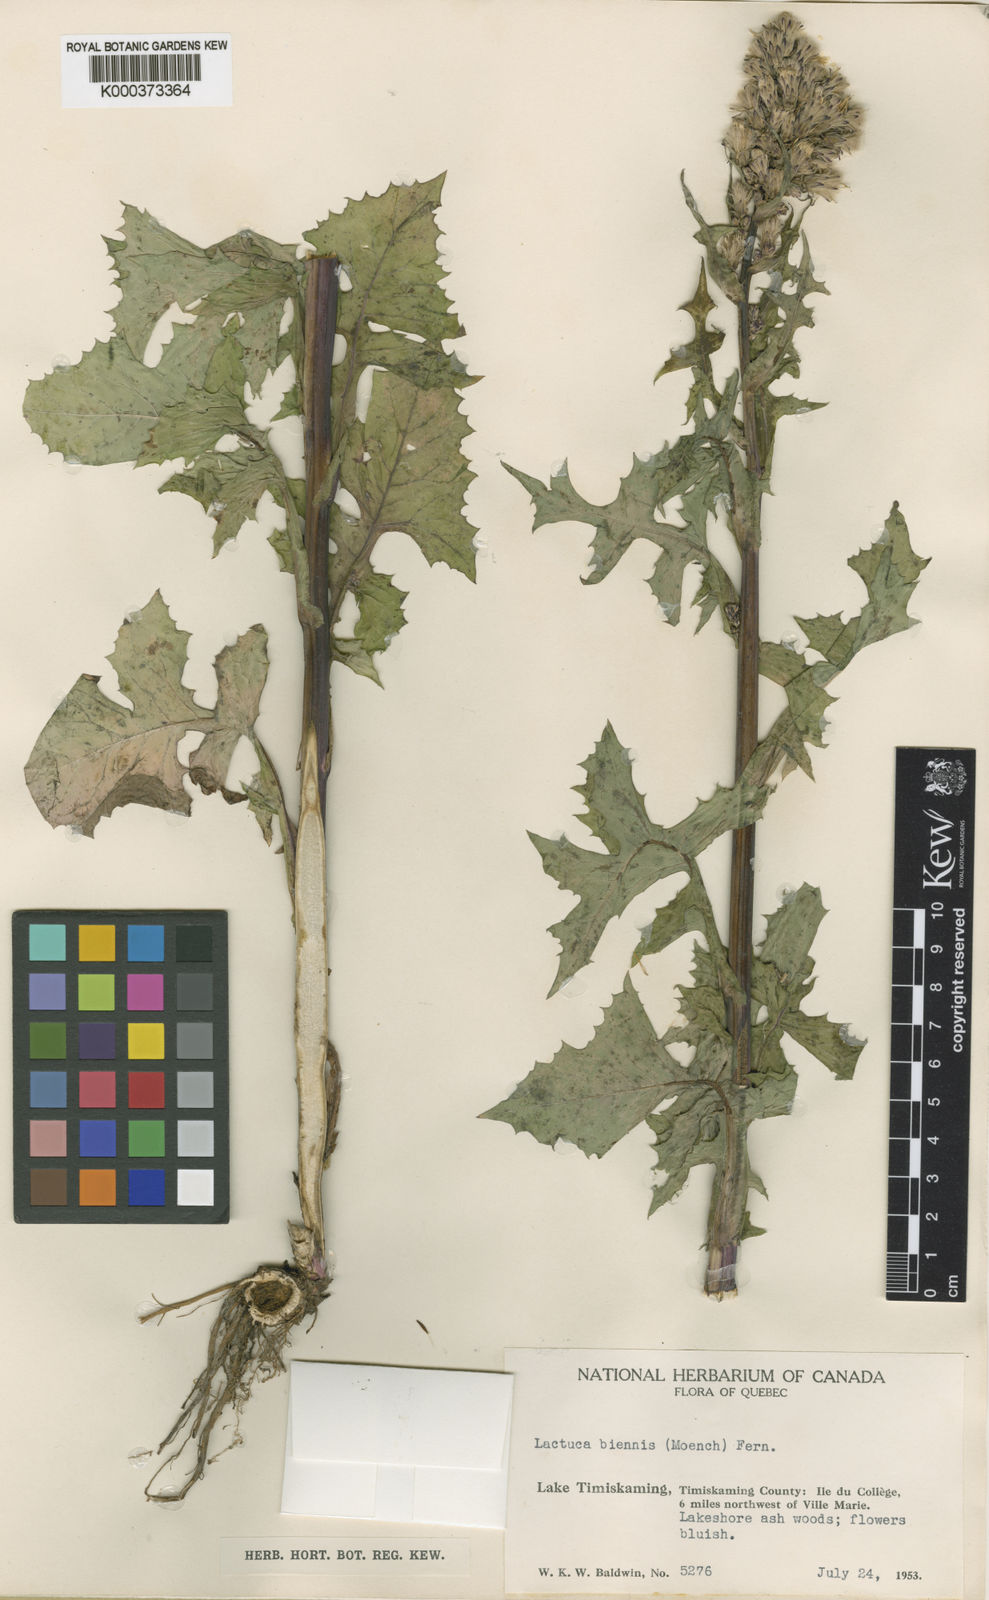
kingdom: Plantae
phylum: Tracheophyta
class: Magnoliopsida
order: Asterales
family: Asteraceae
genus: Lactuca
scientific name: Lactuca biennis
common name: Blue wood lettuce
